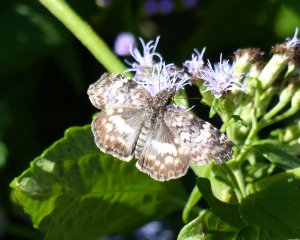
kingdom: Animalia
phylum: Arthropoda
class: Insecta
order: Lepidoptera
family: Hesperiidae
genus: Chiomara
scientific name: Chiomara asychis
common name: White-patched Skipper
